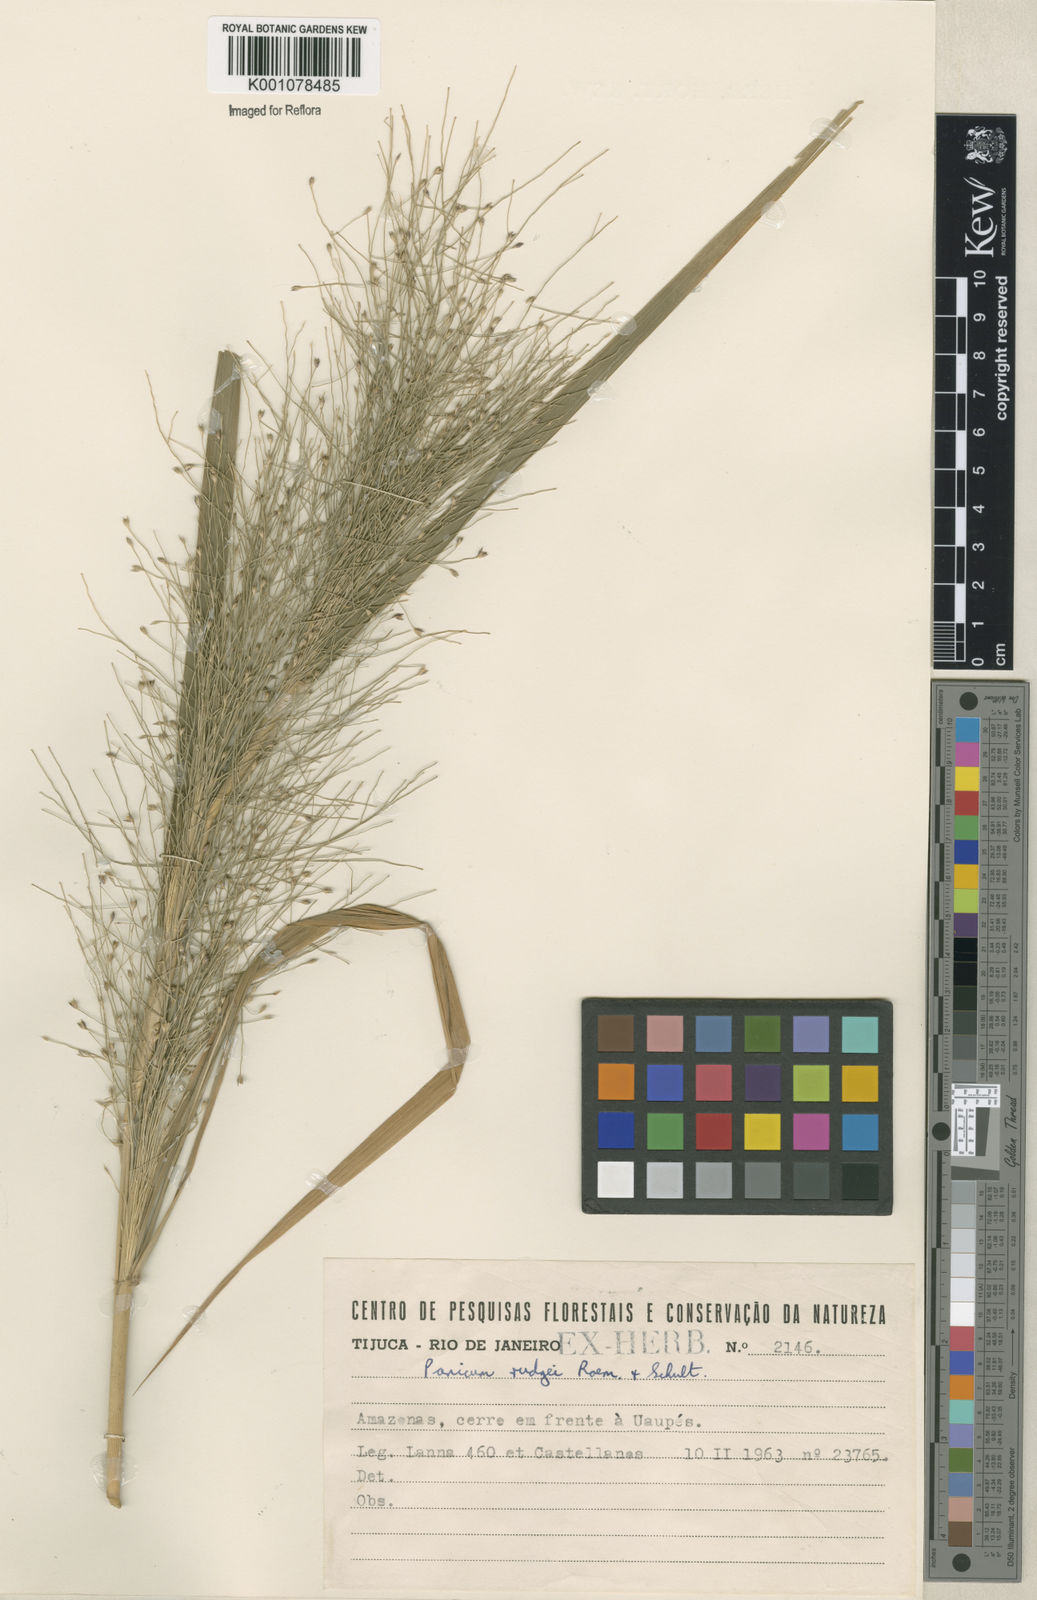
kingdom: Plantae
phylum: Tracheophyta
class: Liliopsida
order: Poales
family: Poaceae
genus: Panicum
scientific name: Panicum rudgei
